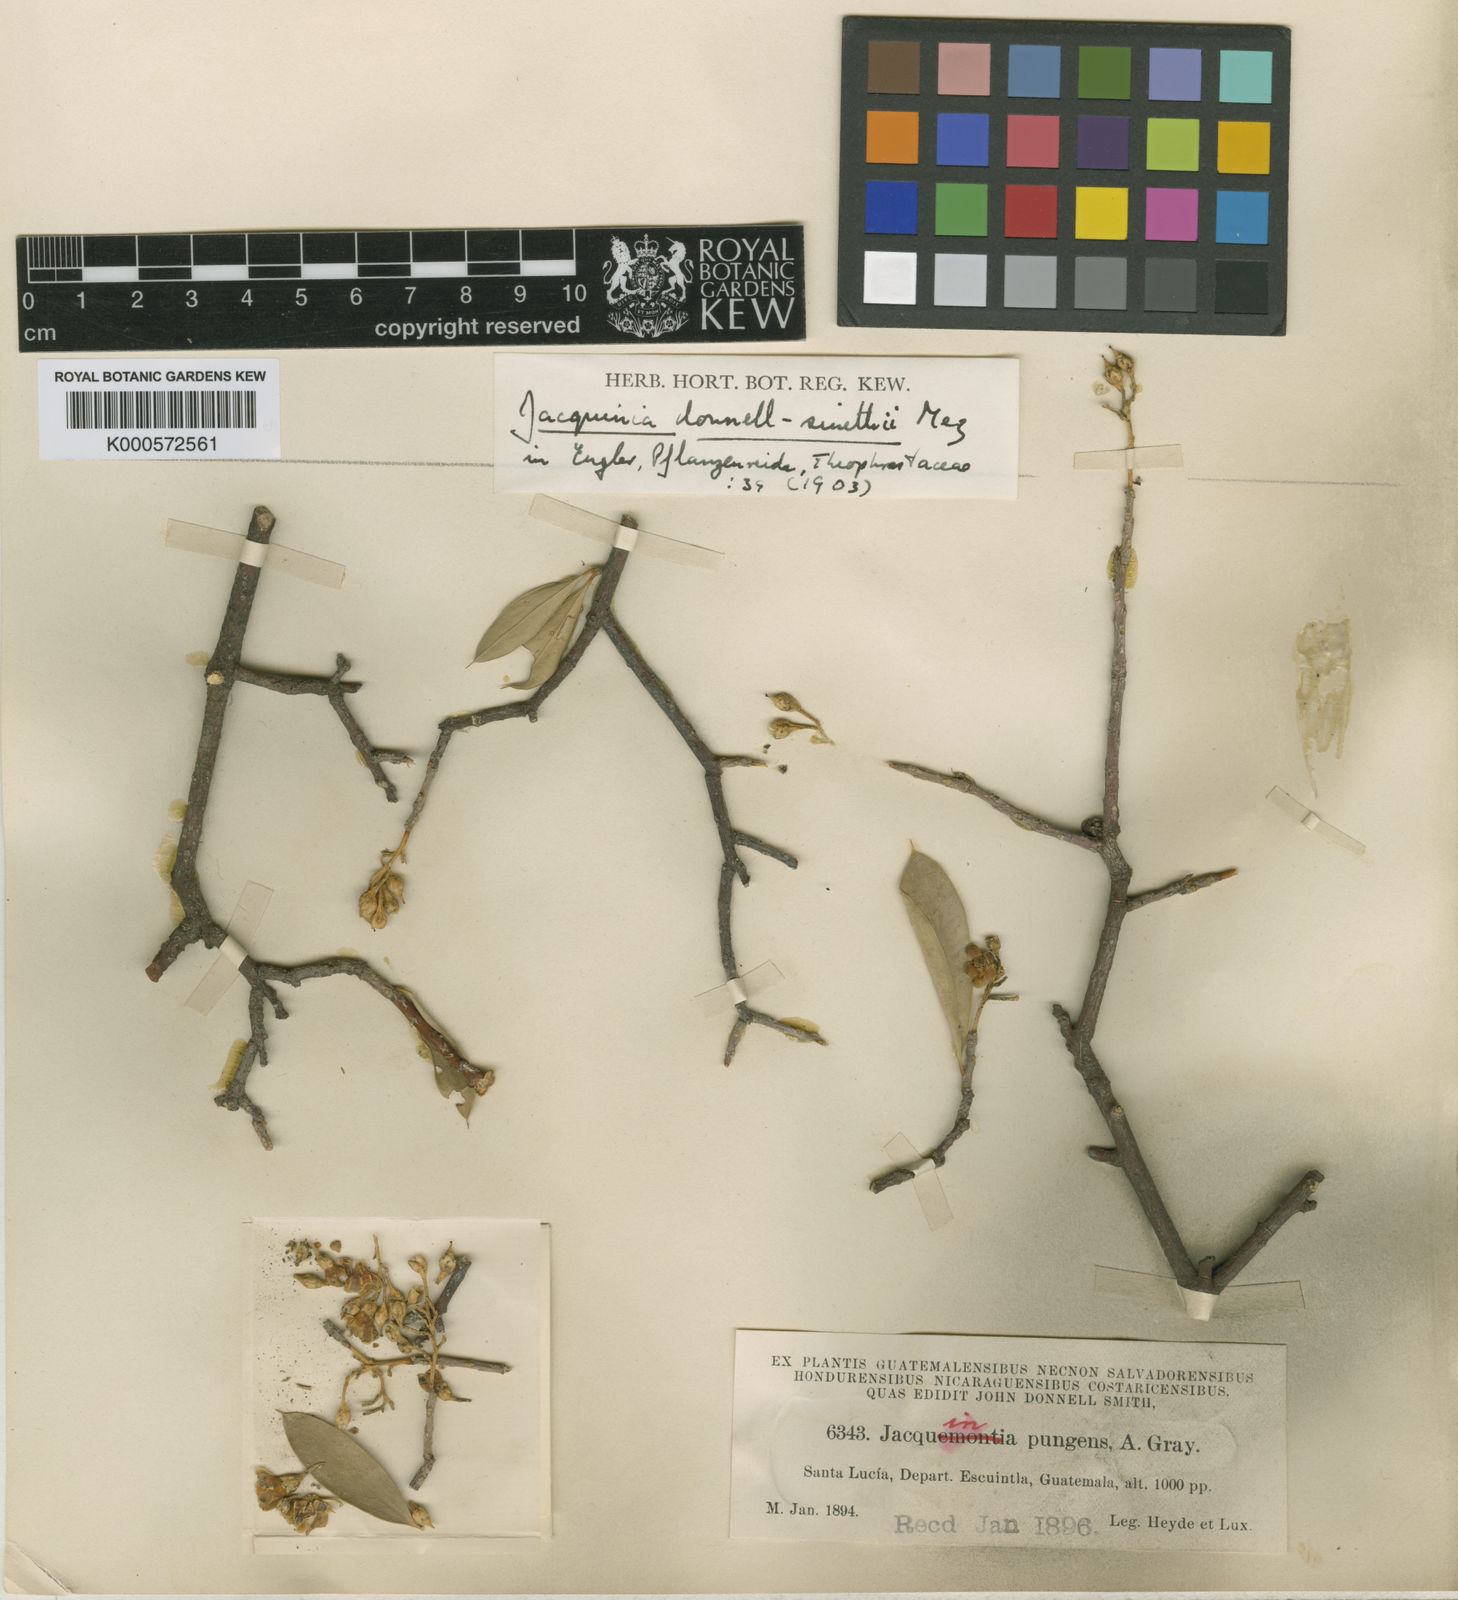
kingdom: Plantae
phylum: Tracheophyta
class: Magnoliopsida
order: Ericales
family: Primulaceae
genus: Bonellia
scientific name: Bonellia nervosa
